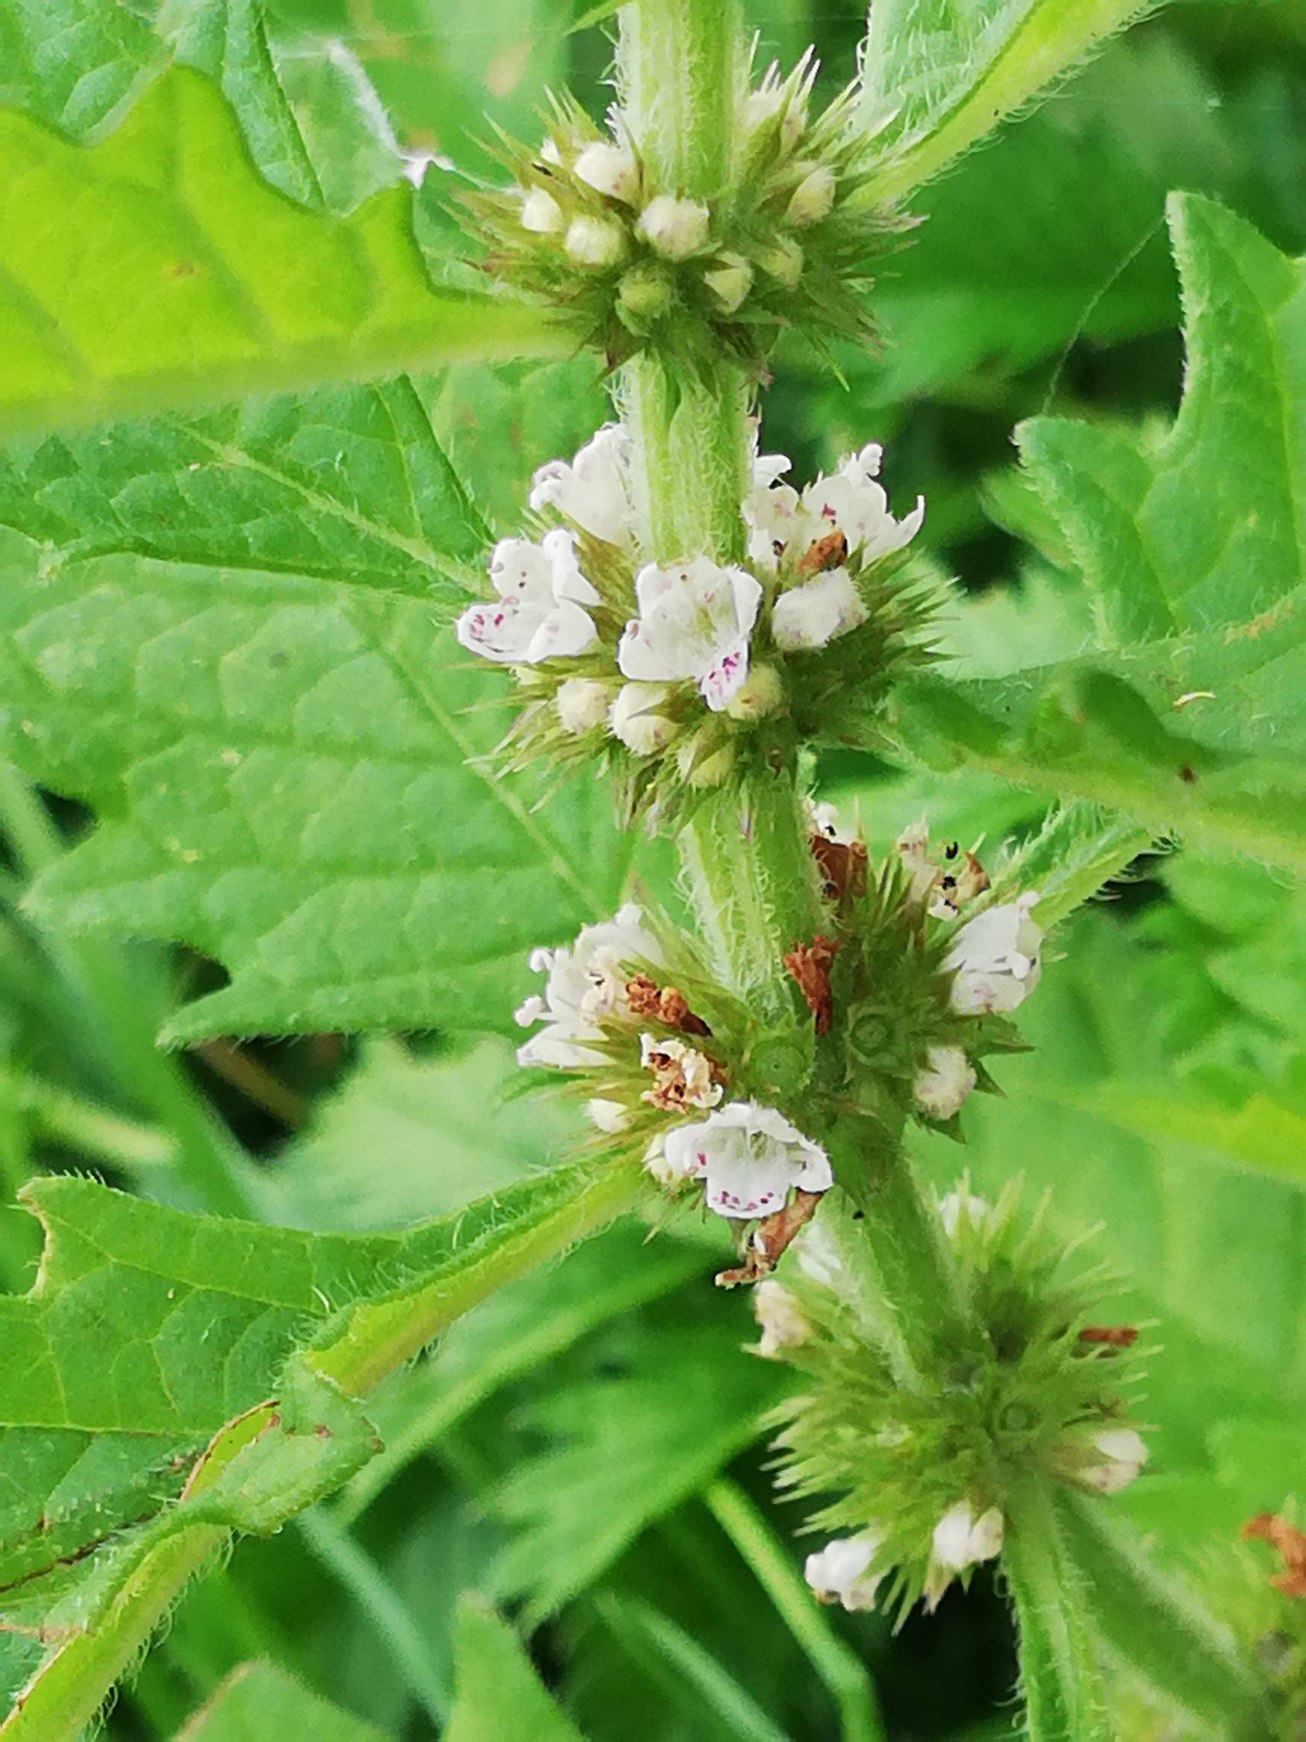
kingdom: Plantae
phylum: Tracheophyta
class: Magnoliopsida
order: Lamiales
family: Lamiaceae
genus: Lycopus
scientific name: Lycopus europaeus
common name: Sværtevæld
